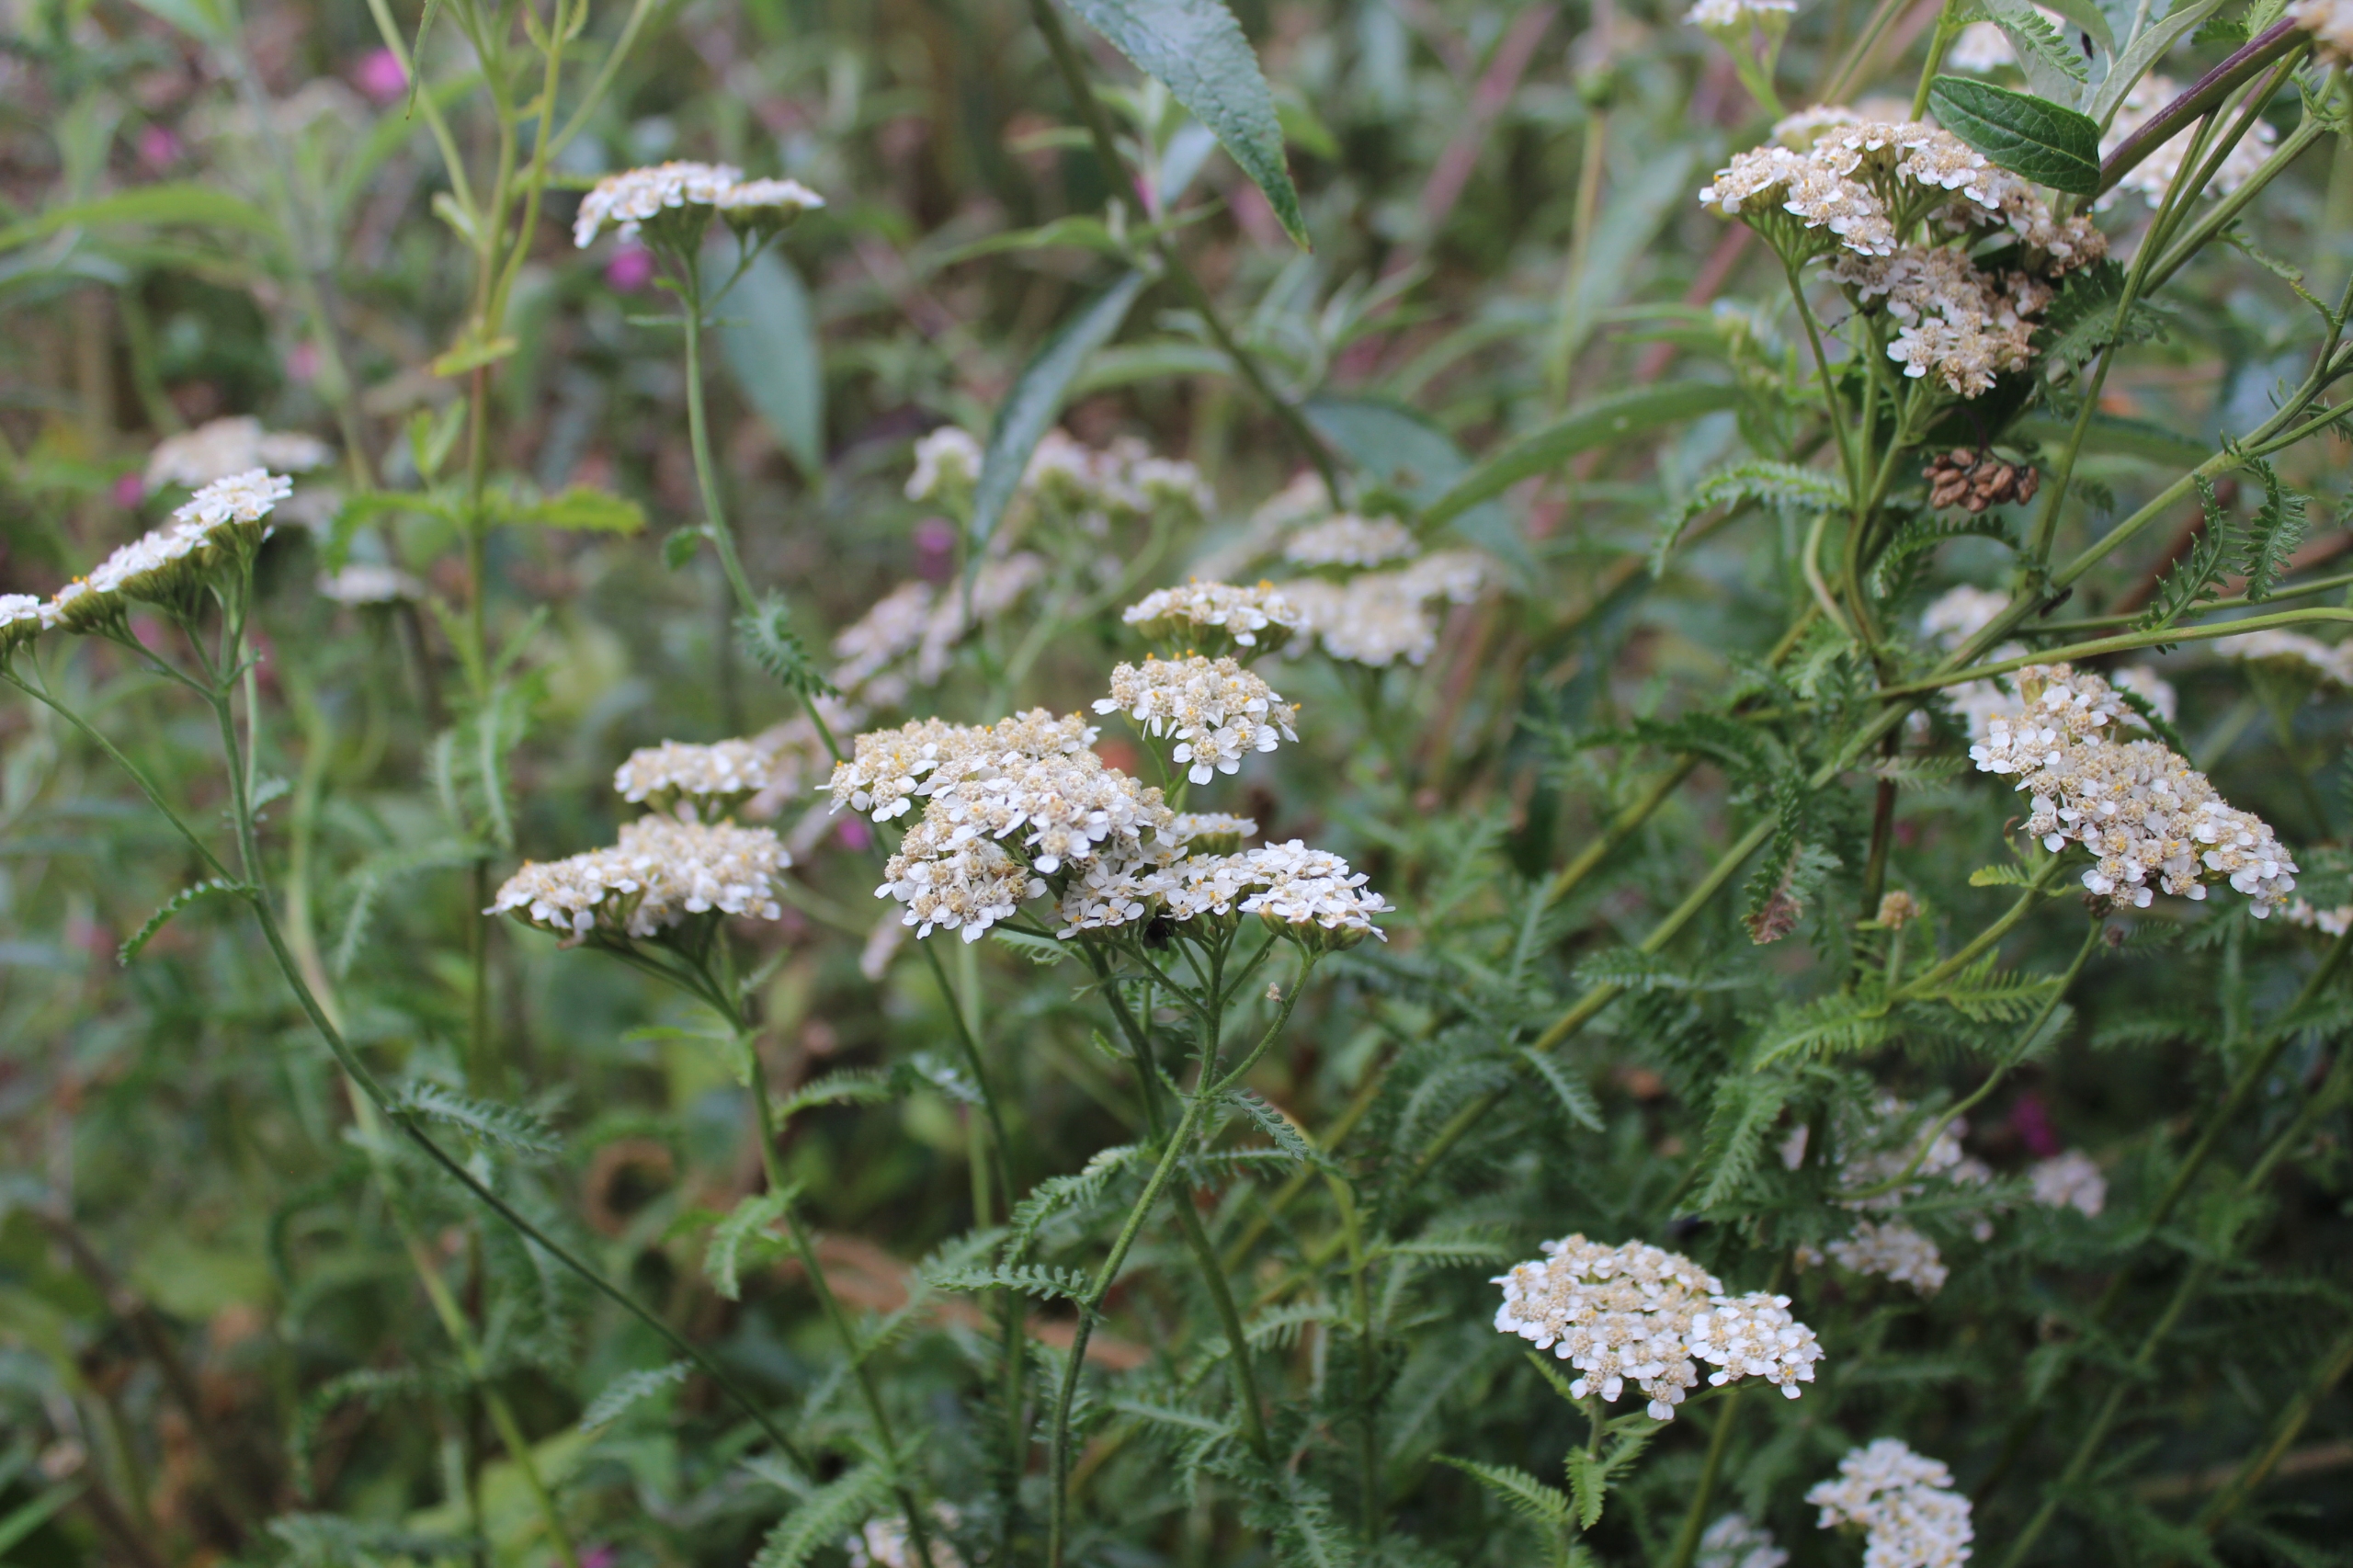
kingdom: Plantae
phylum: Tracheophyta
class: Magnoliopsida
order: Asterales
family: Asteraceae
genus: Achillea
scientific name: Achillea millefolium
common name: Almindelig røllike
